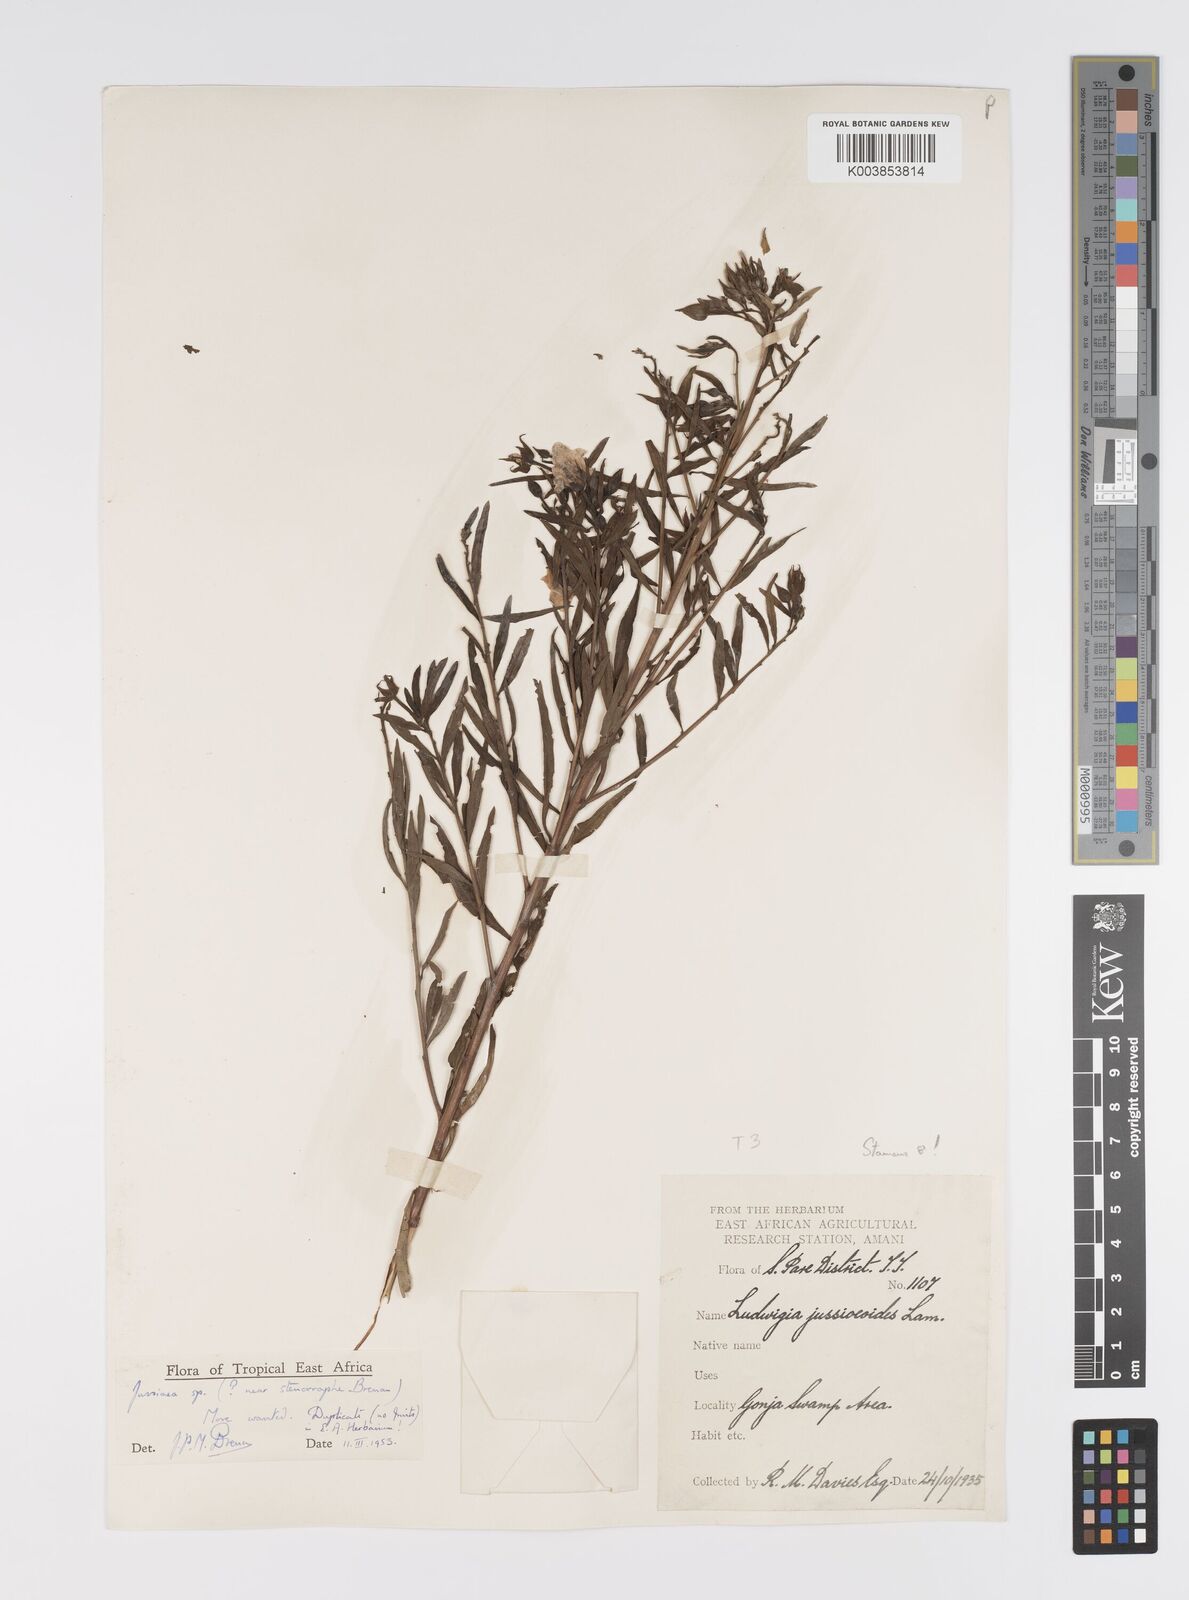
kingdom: Plantae
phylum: Tracheophyta
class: Magnoliopsida
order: Myrtales
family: Onagraceae
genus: Ludwigia
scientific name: Ludwigia
